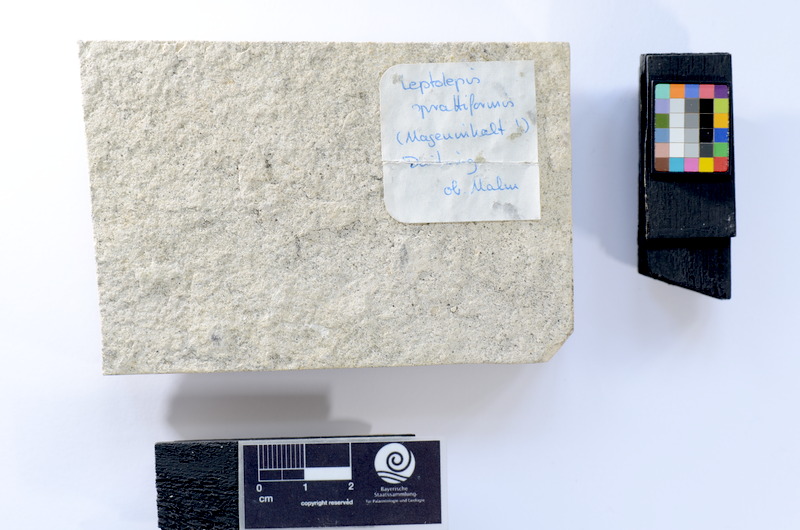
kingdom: Animalia
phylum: Chordata
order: Salmoniformes
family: Orthogonikleithridae
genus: Leptolepides
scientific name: Leptolepides sprattiformis
